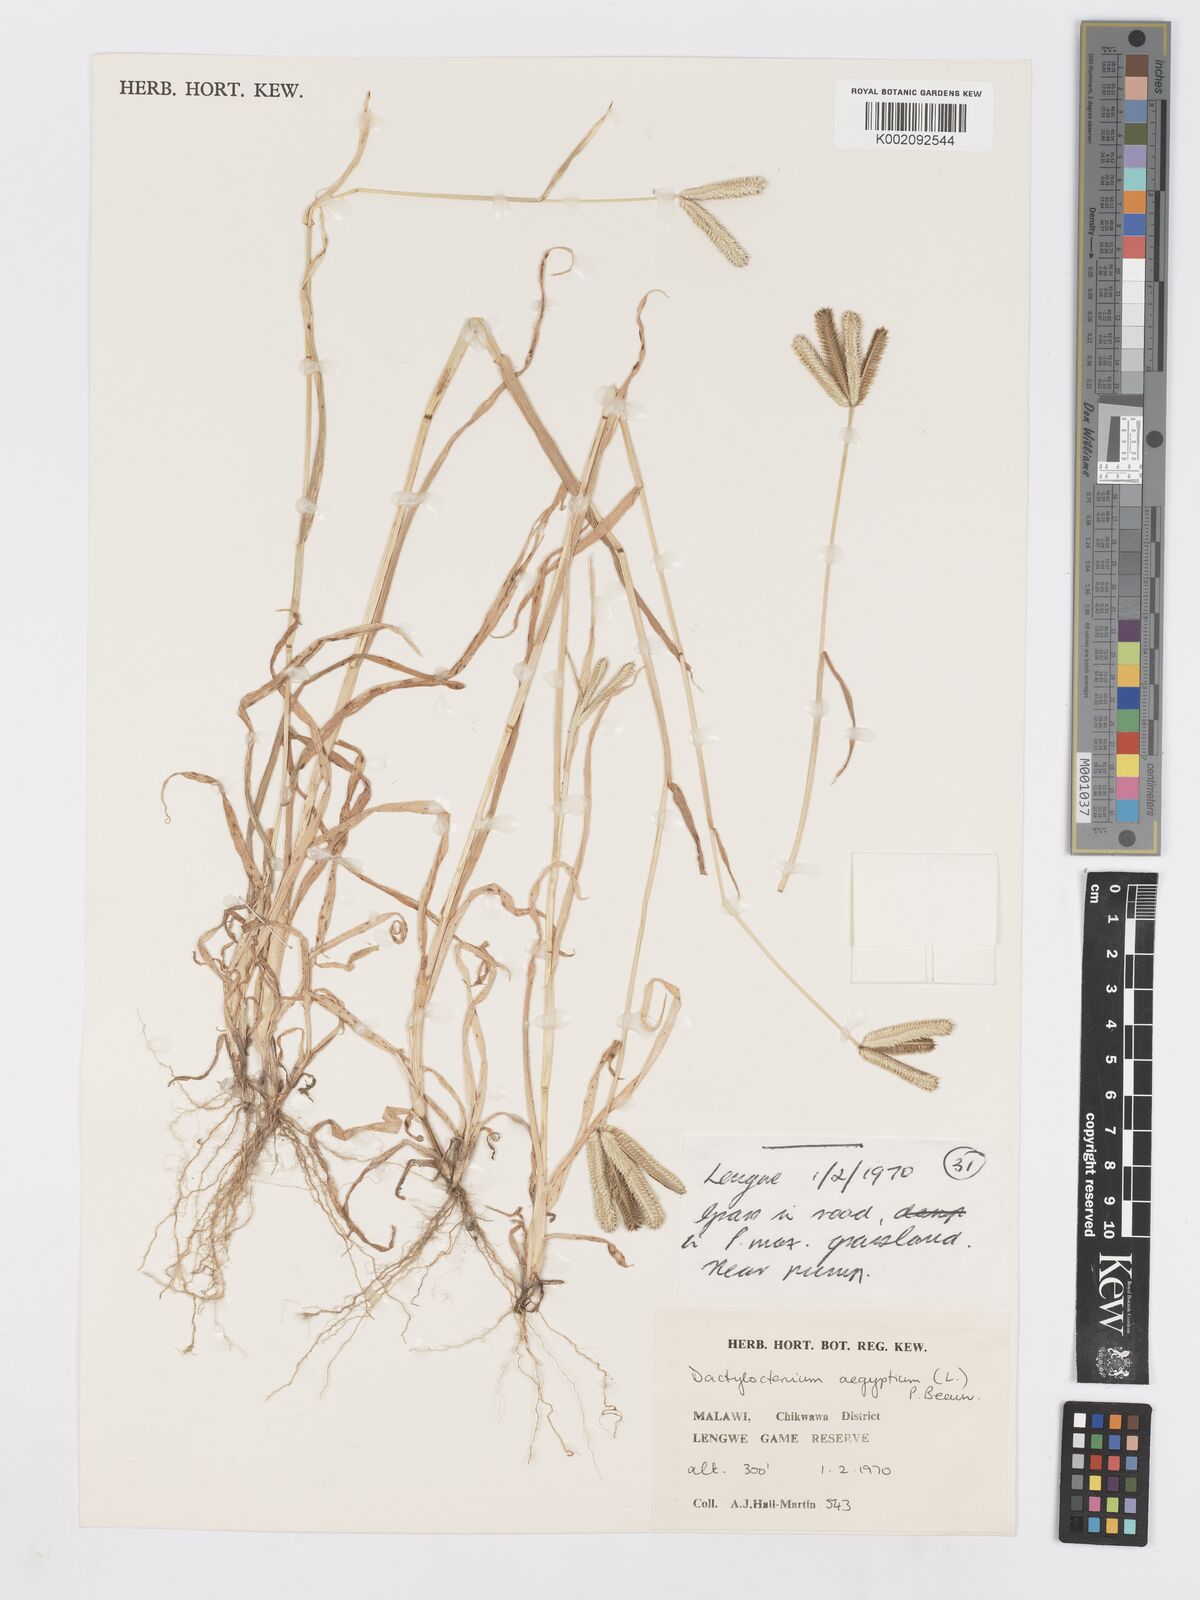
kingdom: Plantae
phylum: Tracheophyta
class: Liliopsida
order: Poales
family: Poaceae
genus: Dactyloctenium
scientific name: Dactyloctenium aegyptium
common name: Egyptian grass
